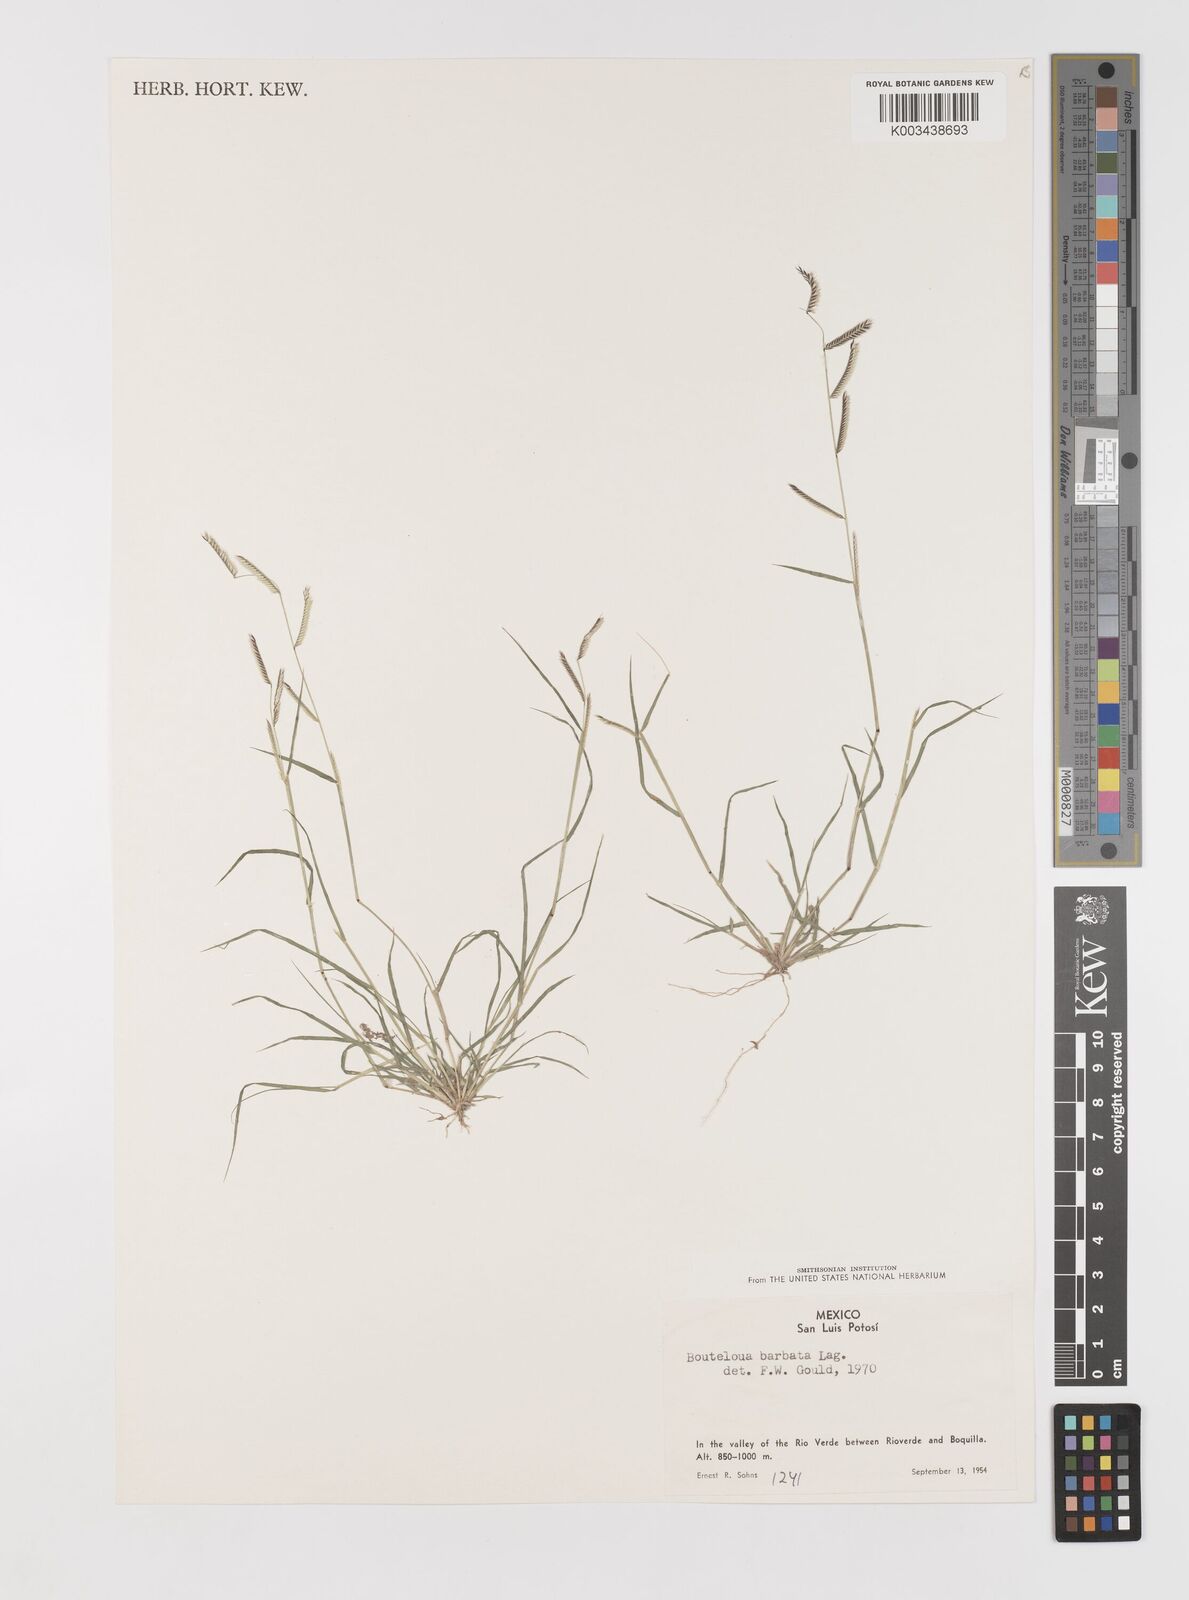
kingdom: Plantae
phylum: Tracheophyta
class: Liliopsida
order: Poales
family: Poaceae
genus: Bouteloua
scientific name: Bouteloua
